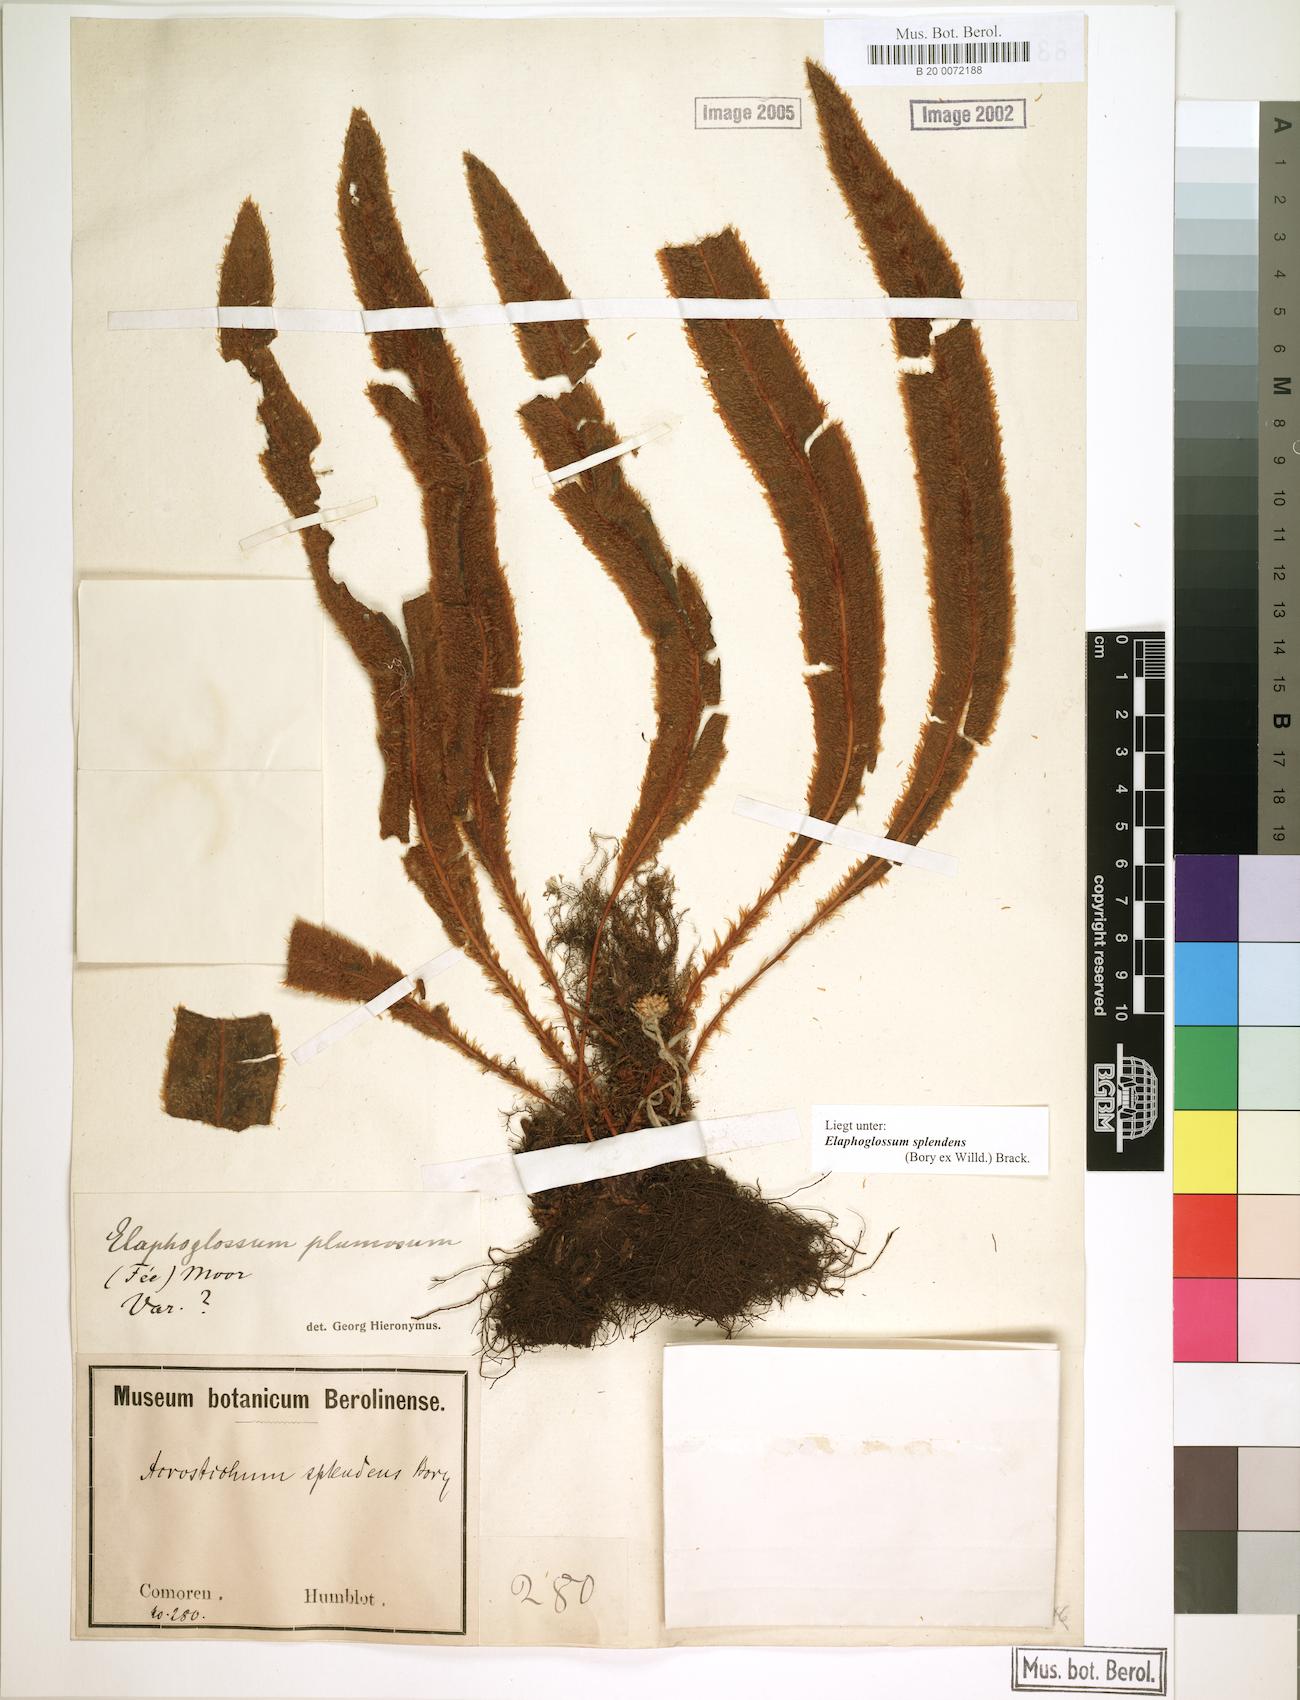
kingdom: Plantae
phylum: Tracheophyta
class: Polypodiopsida
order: Polypodiales
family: Dryopteridaceae
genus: Elaphoglossum
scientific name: Elaphoglossum splendens
